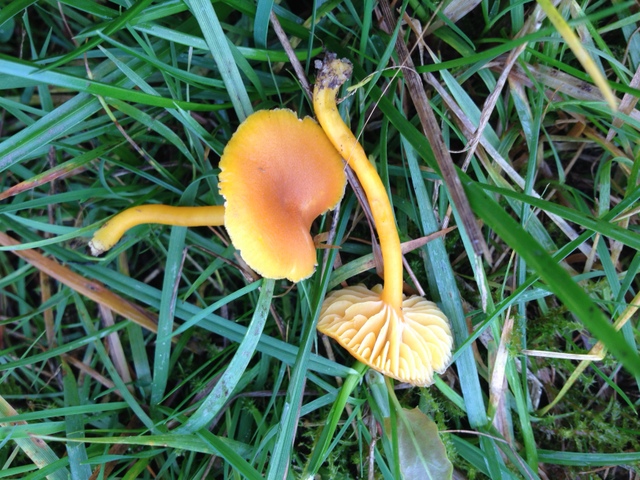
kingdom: Fungi
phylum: Basidiomycota
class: Agaricomycetes
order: Agaricales
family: Hygrophoraceae
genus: Hygrocybe
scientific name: Hygrocybe miniata
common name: mønje-vokshat
